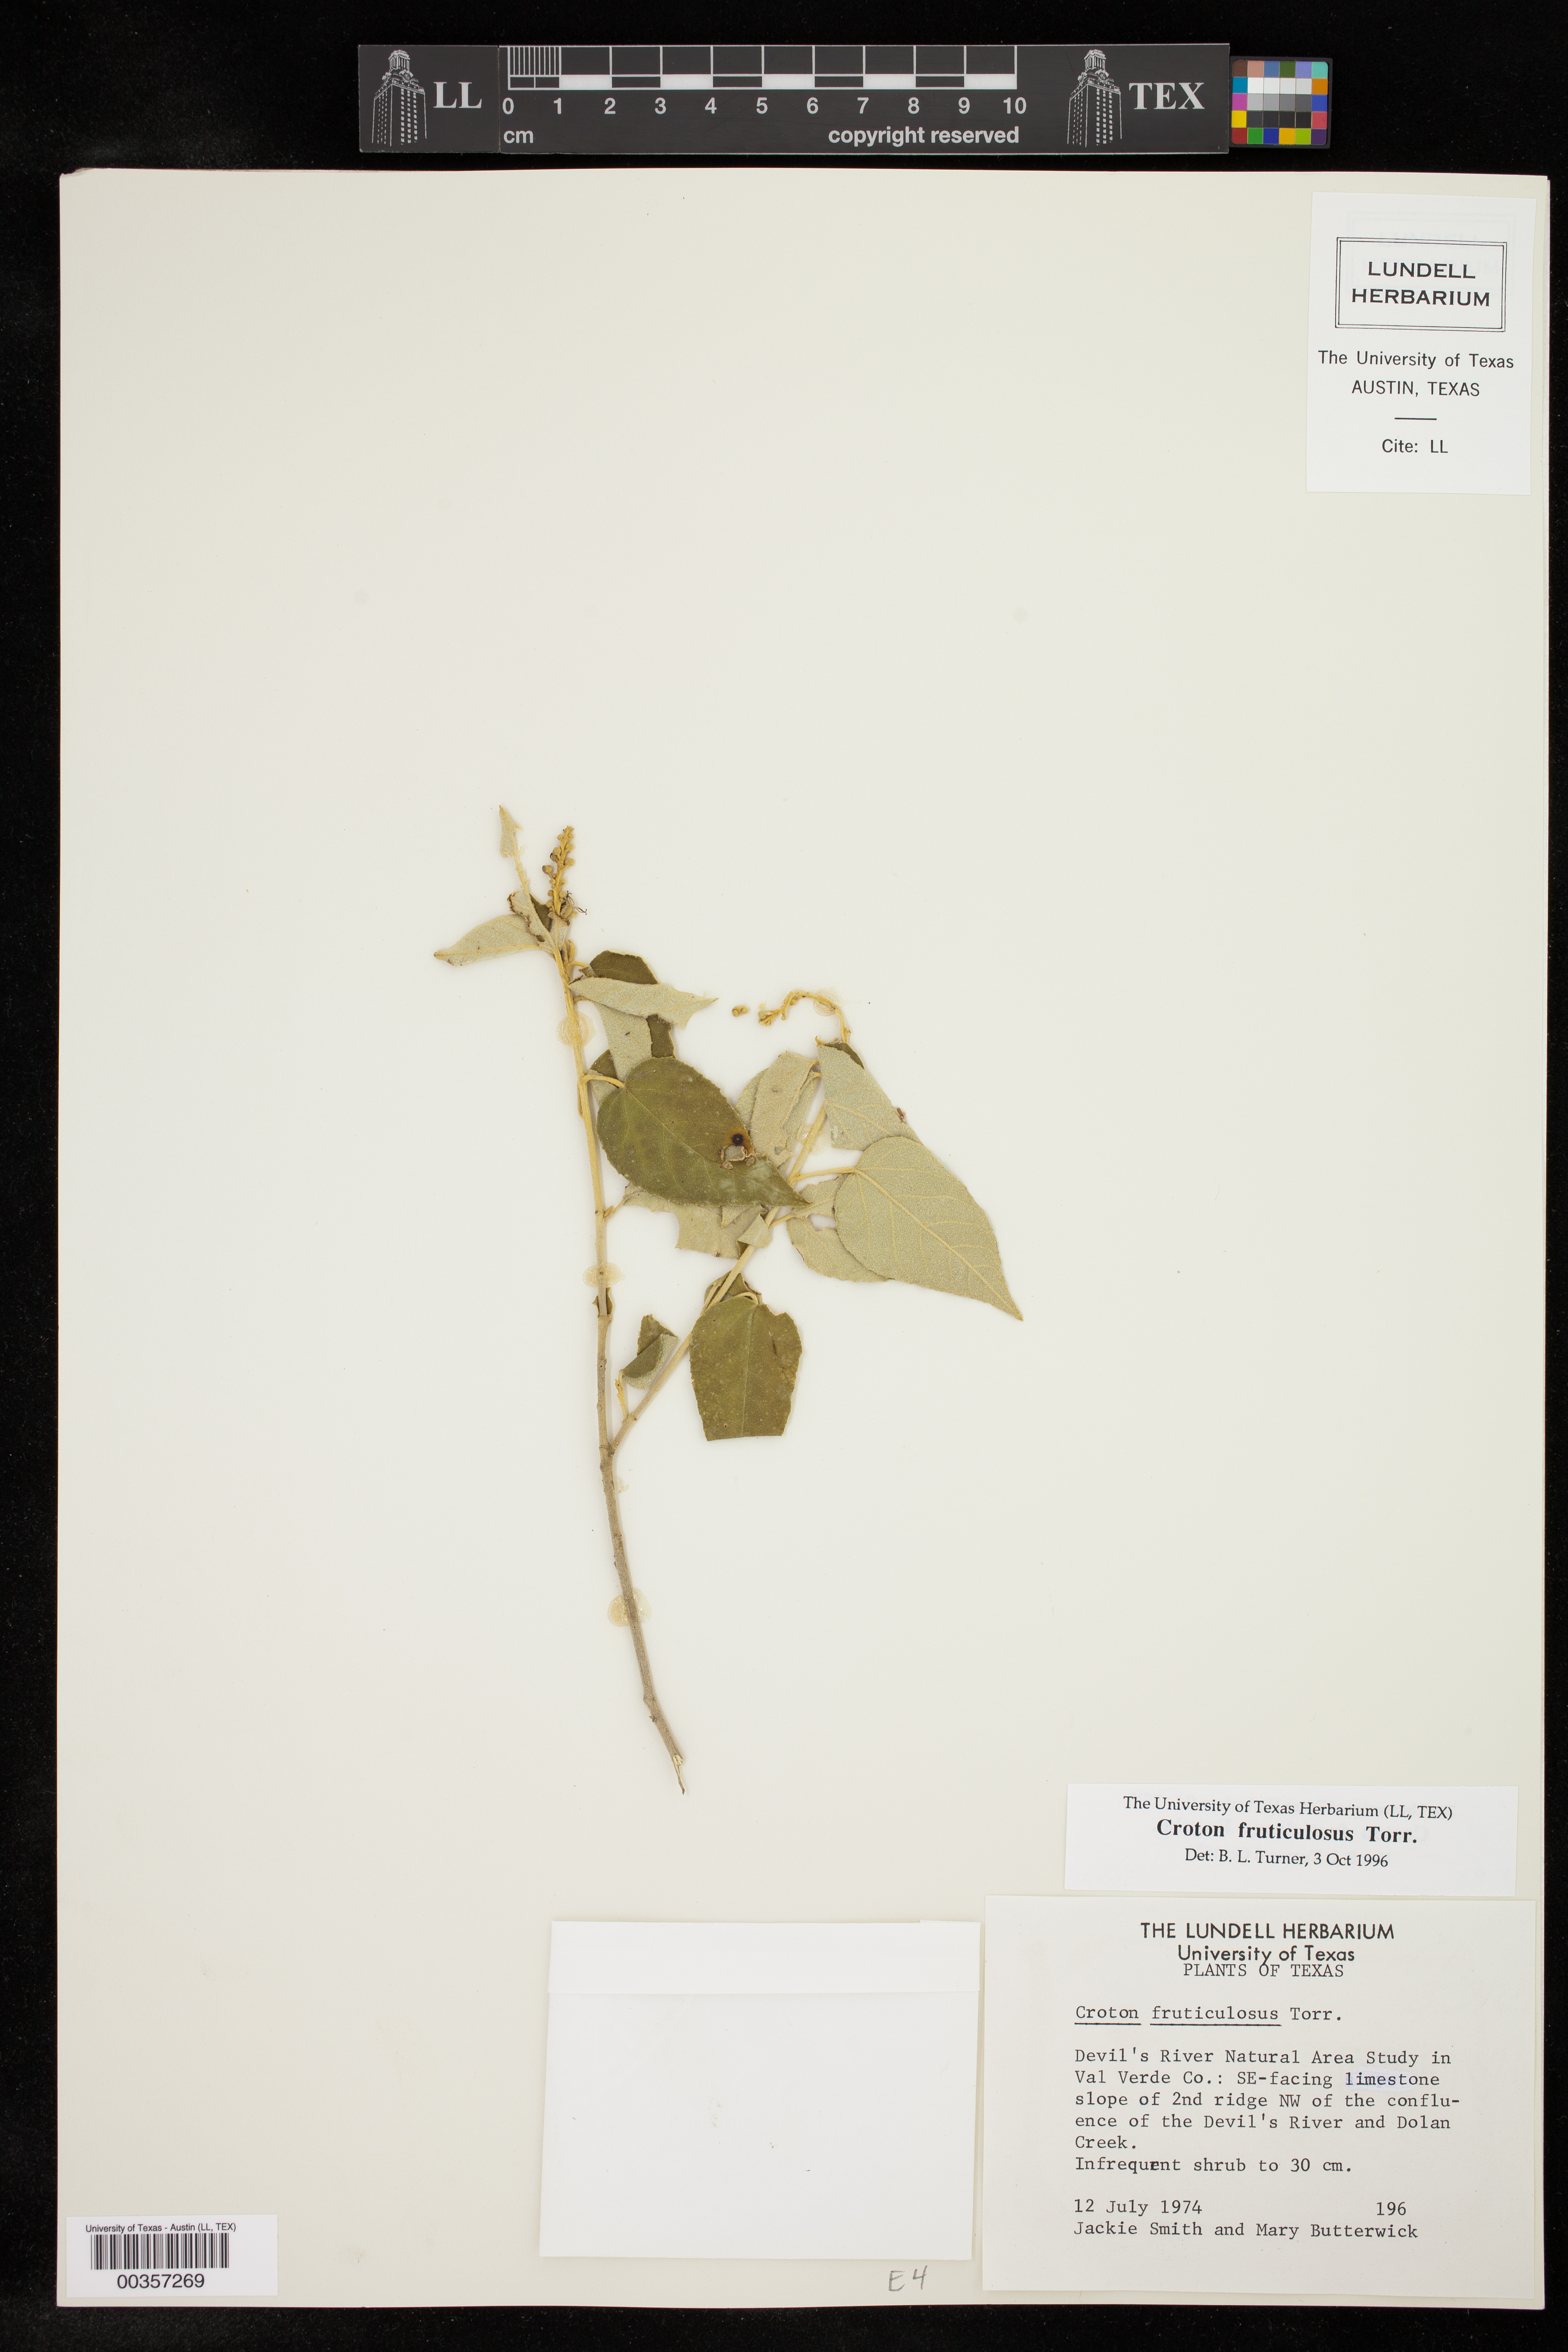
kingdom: Plantae
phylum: Tracheophyta
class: Magnoliopsida
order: Malpighiales
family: Euphorbiaceae
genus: Croton
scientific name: Croton fruticulosus
